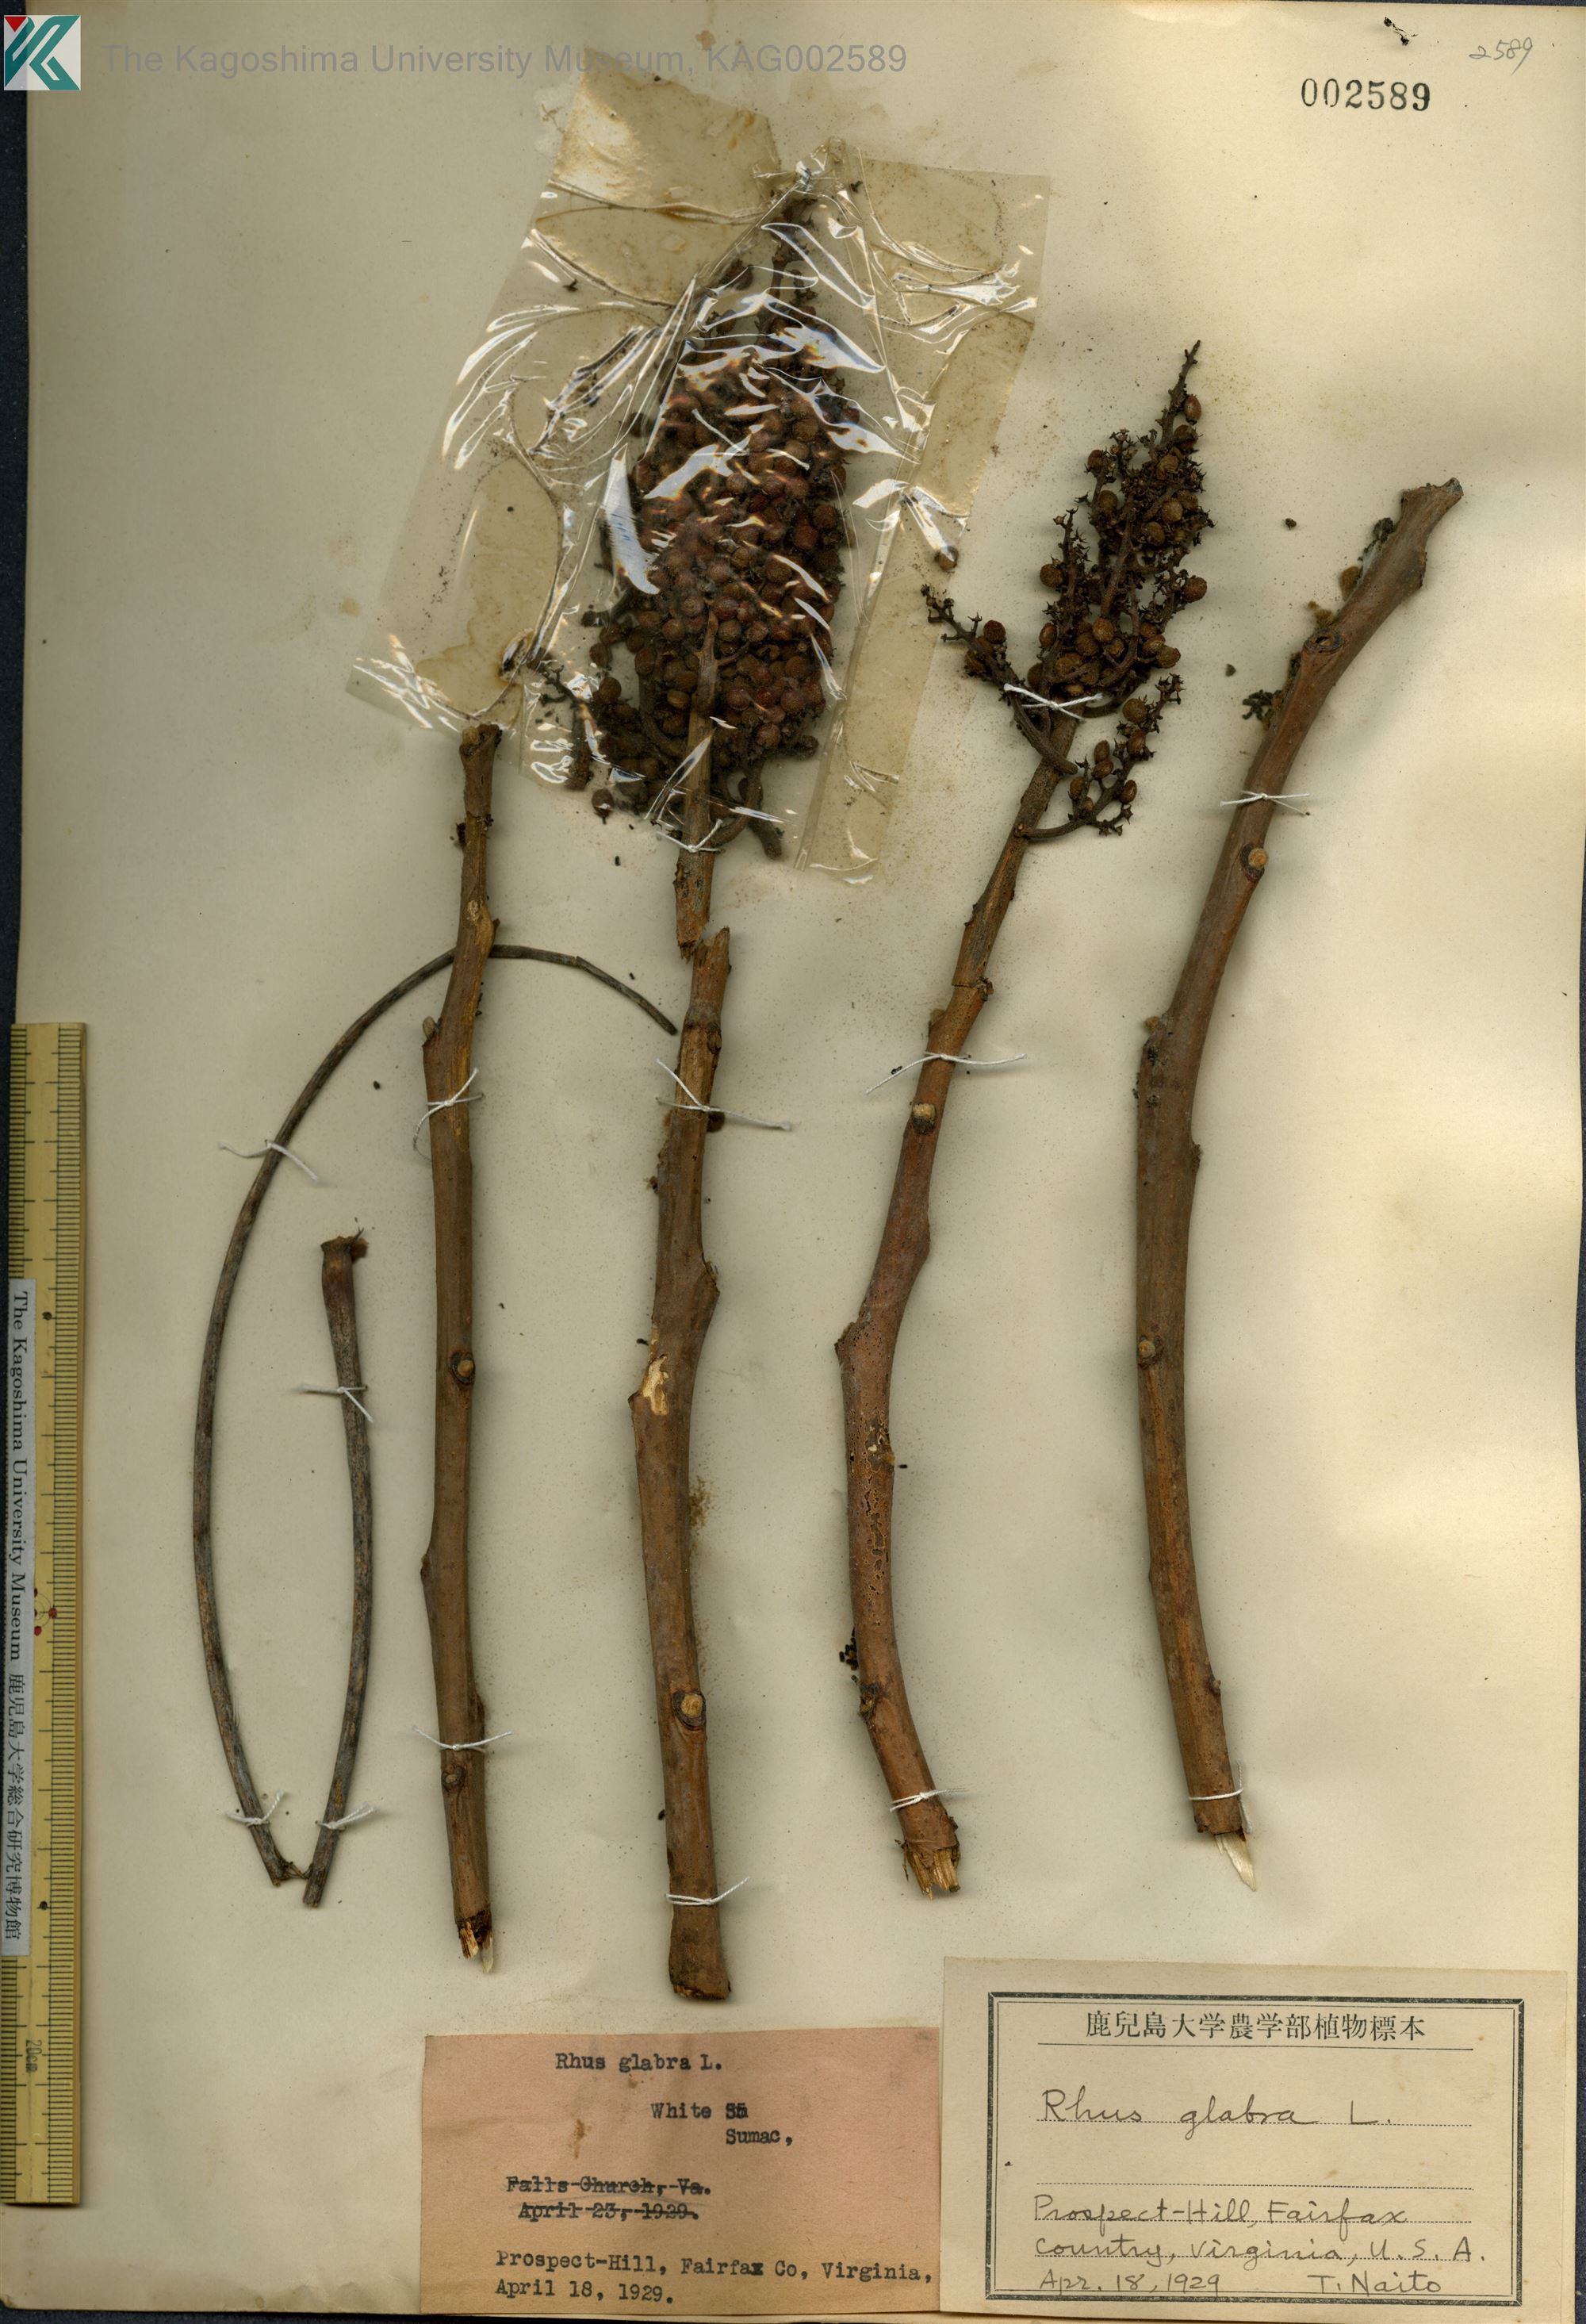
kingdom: Plantae
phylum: Tracheophyta
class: Magnoliopsida
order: Sapindales
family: Anacardiaceae
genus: Rhus
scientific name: Rhus glabra
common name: Scarlet sumac
